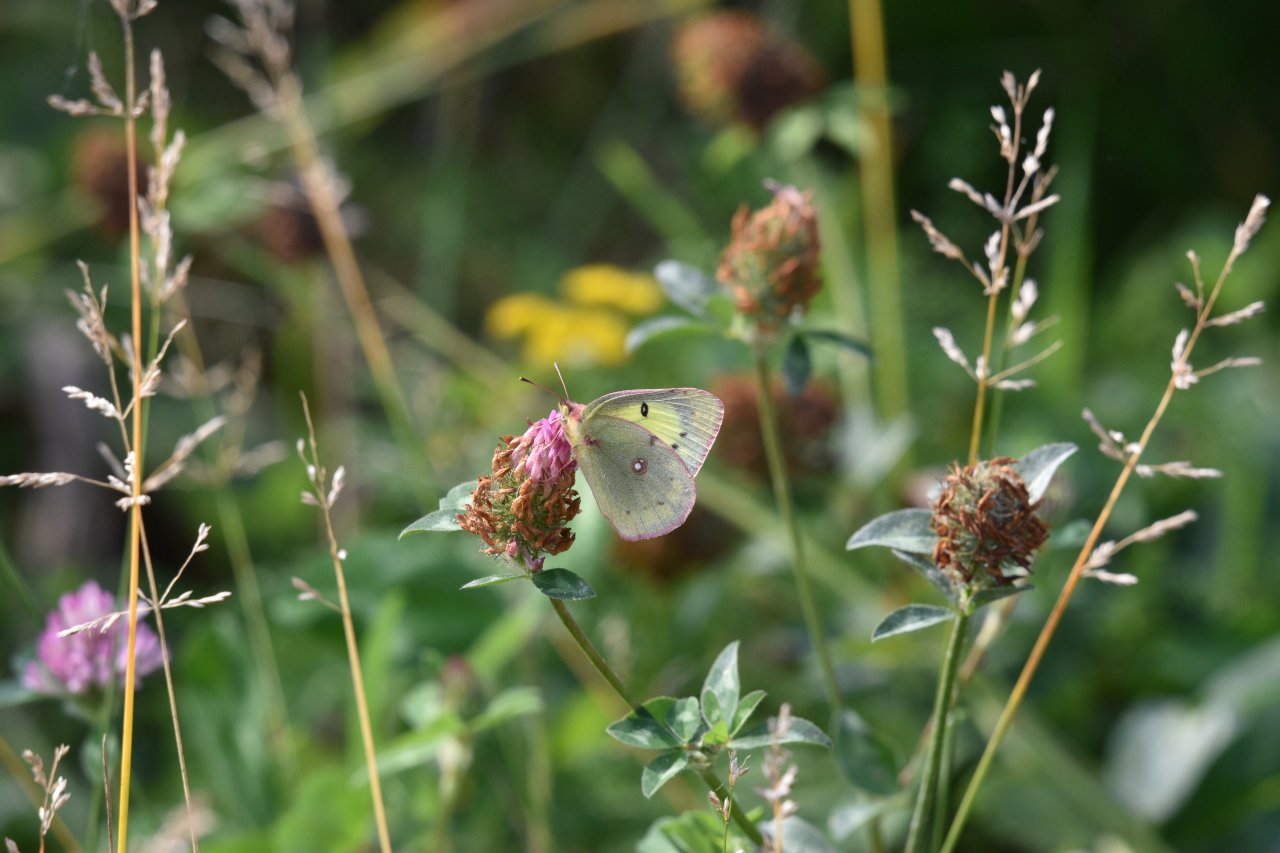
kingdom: Animalia
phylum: Arthropoda
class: Insecta
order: Lepidoptera
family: Pieridae
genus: Colias
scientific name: Colias philodice
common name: Clouded Sulphur
